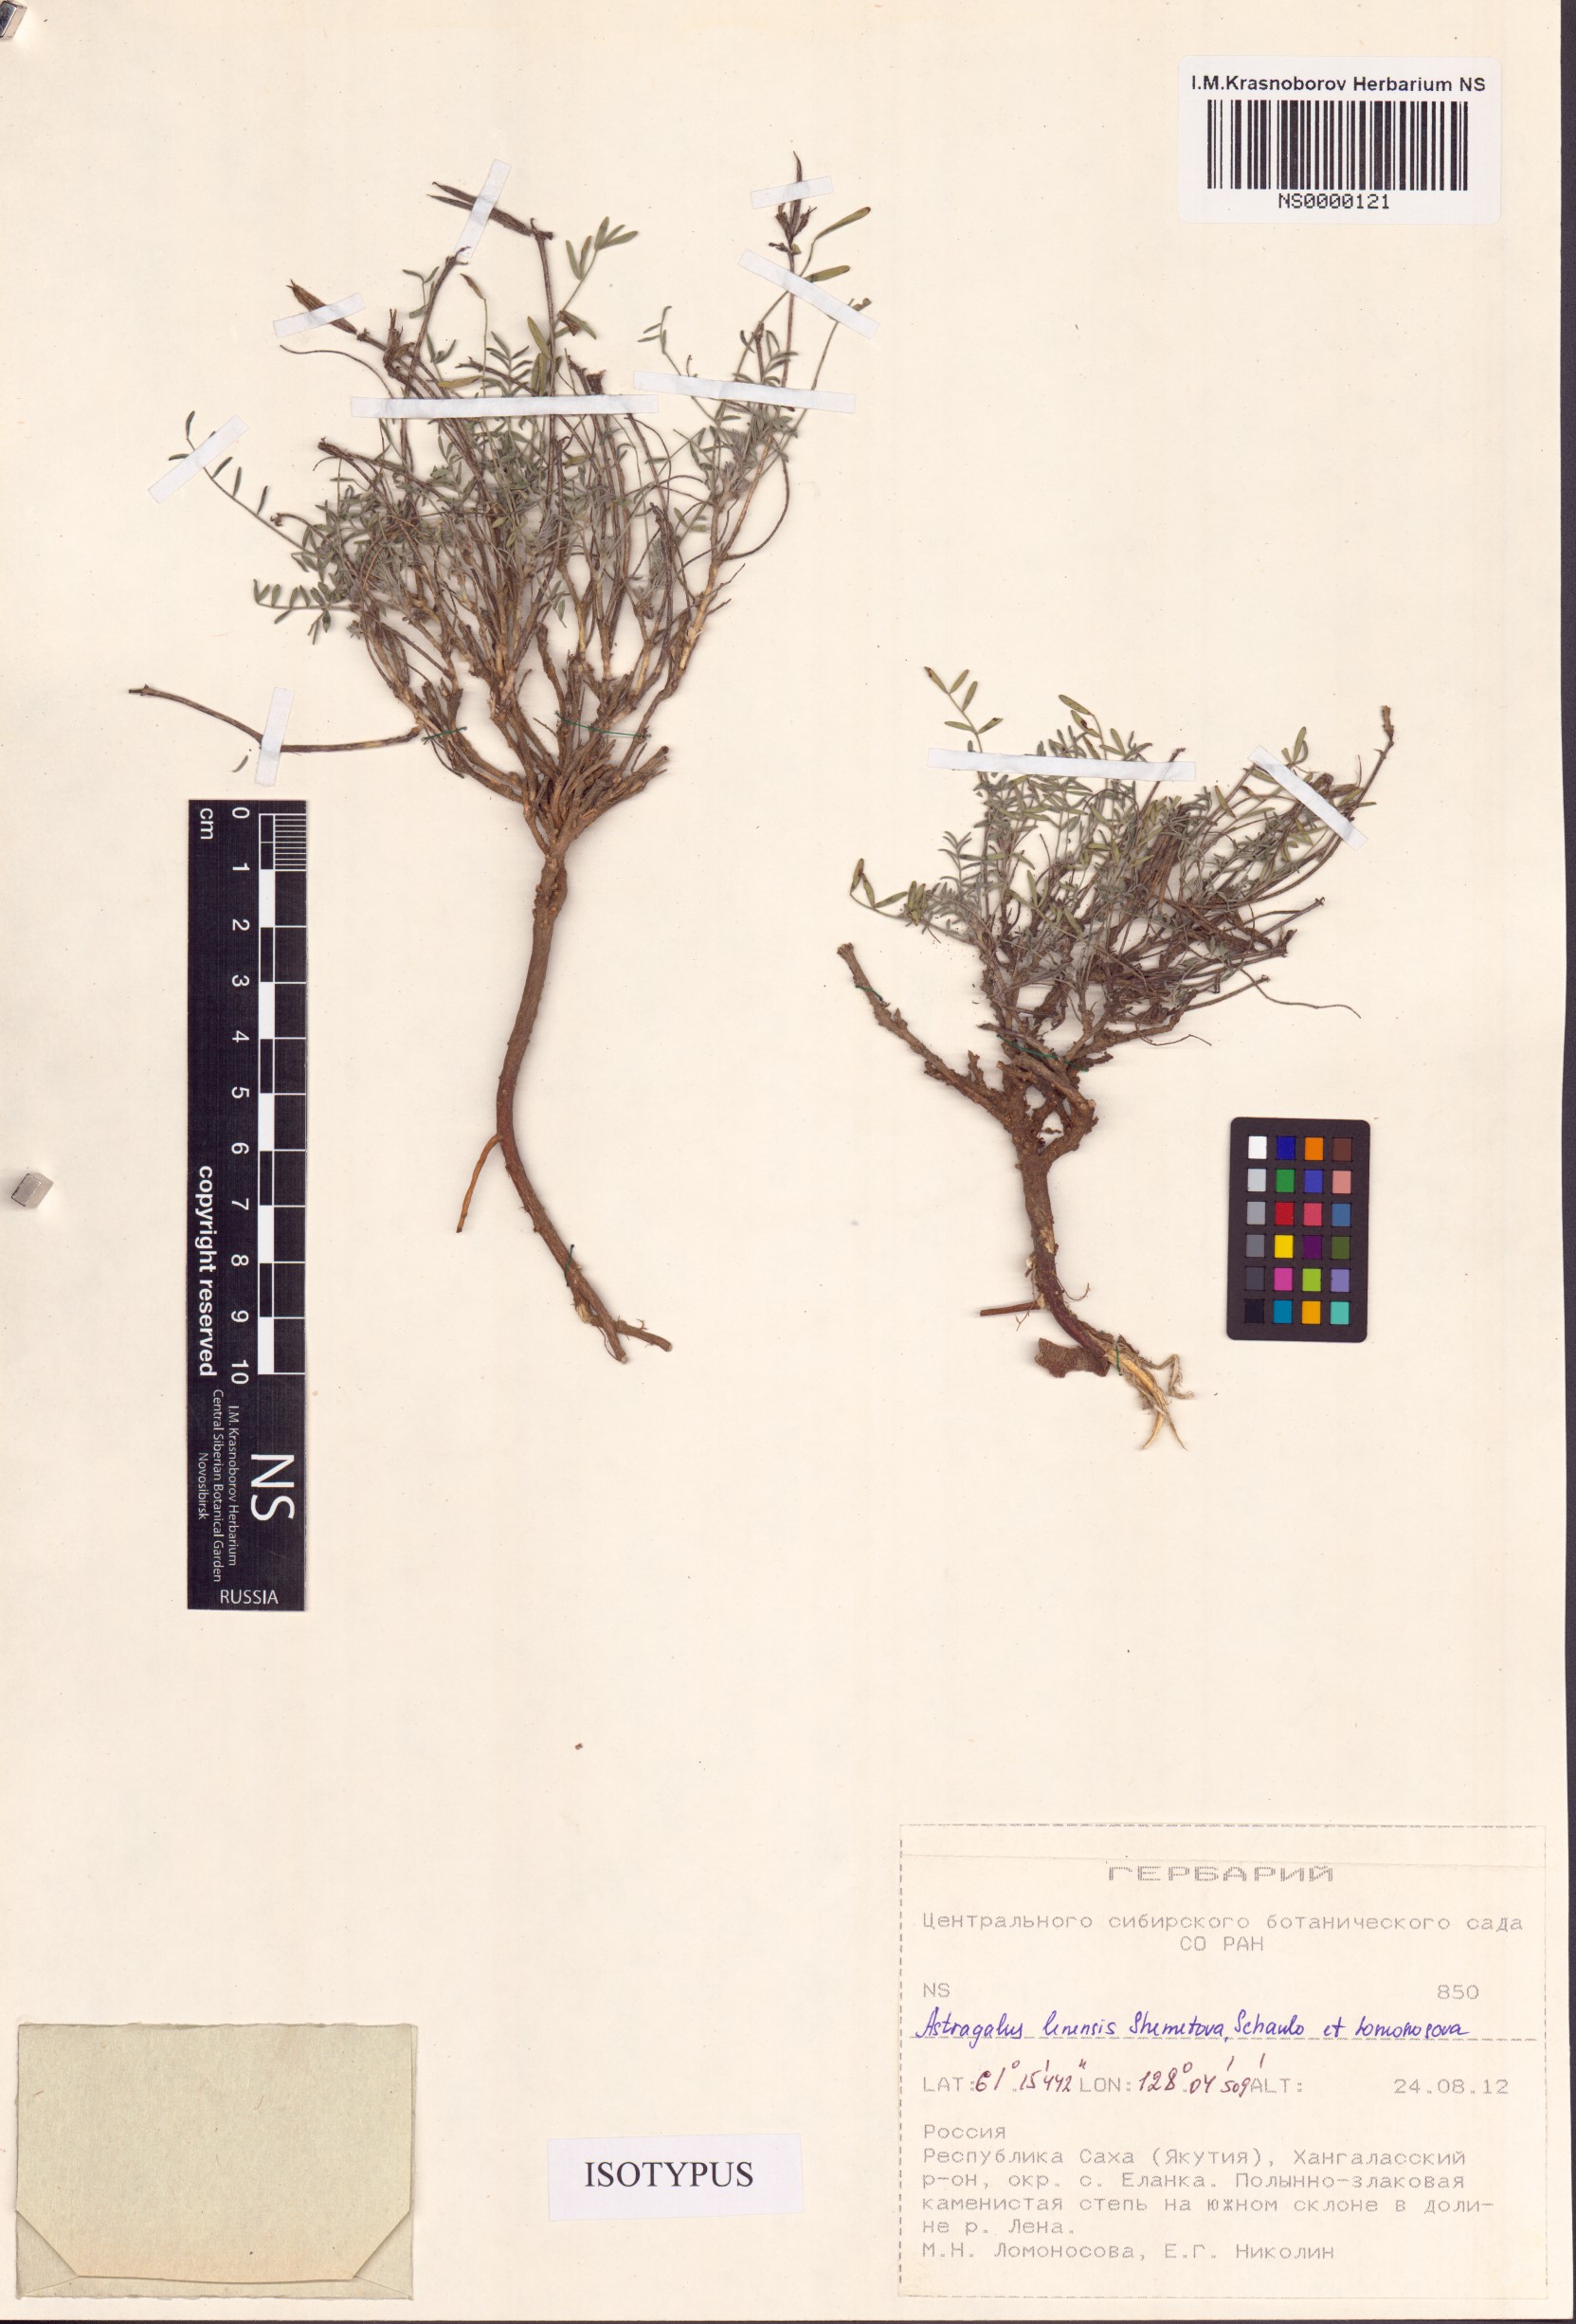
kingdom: Plantae
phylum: Tracheophyta
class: Magnoliopsida
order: Fabales
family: Fabaceae
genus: Astragalus
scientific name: Astragalus lenensis
